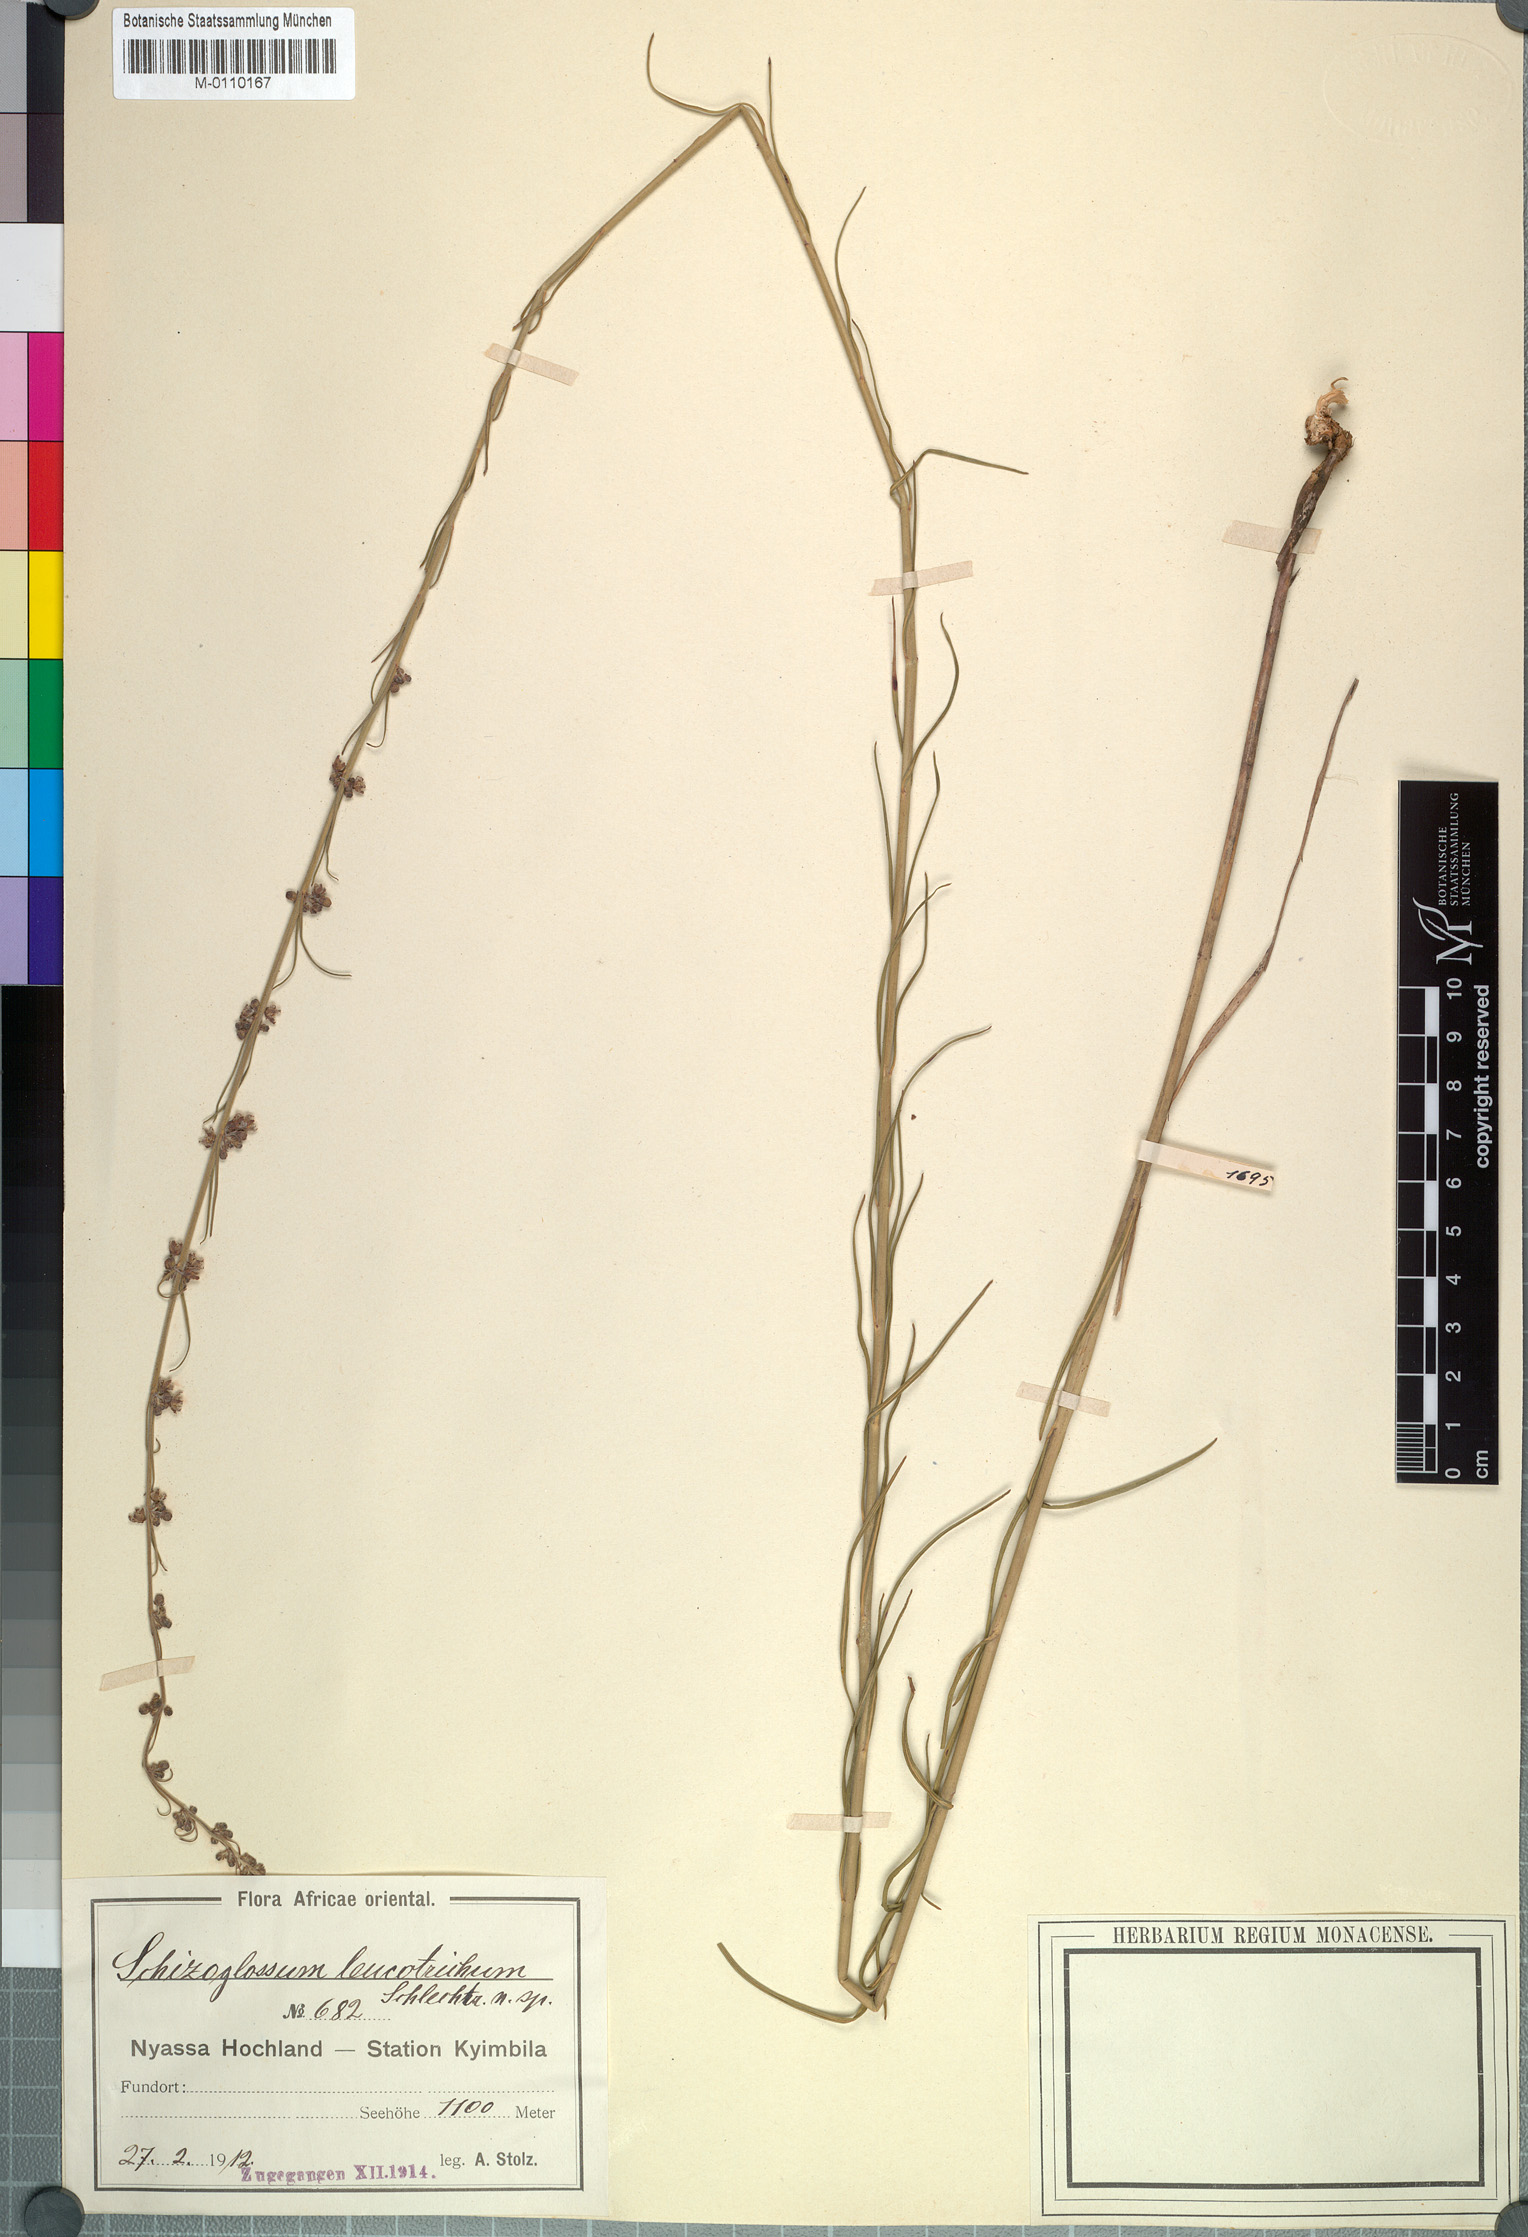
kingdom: Plantae
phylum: Tracheophyta
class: Magnoliopsida
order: Gentianales
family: Apocynaceae
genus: Schizoglossum
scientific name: Schizoglossum
